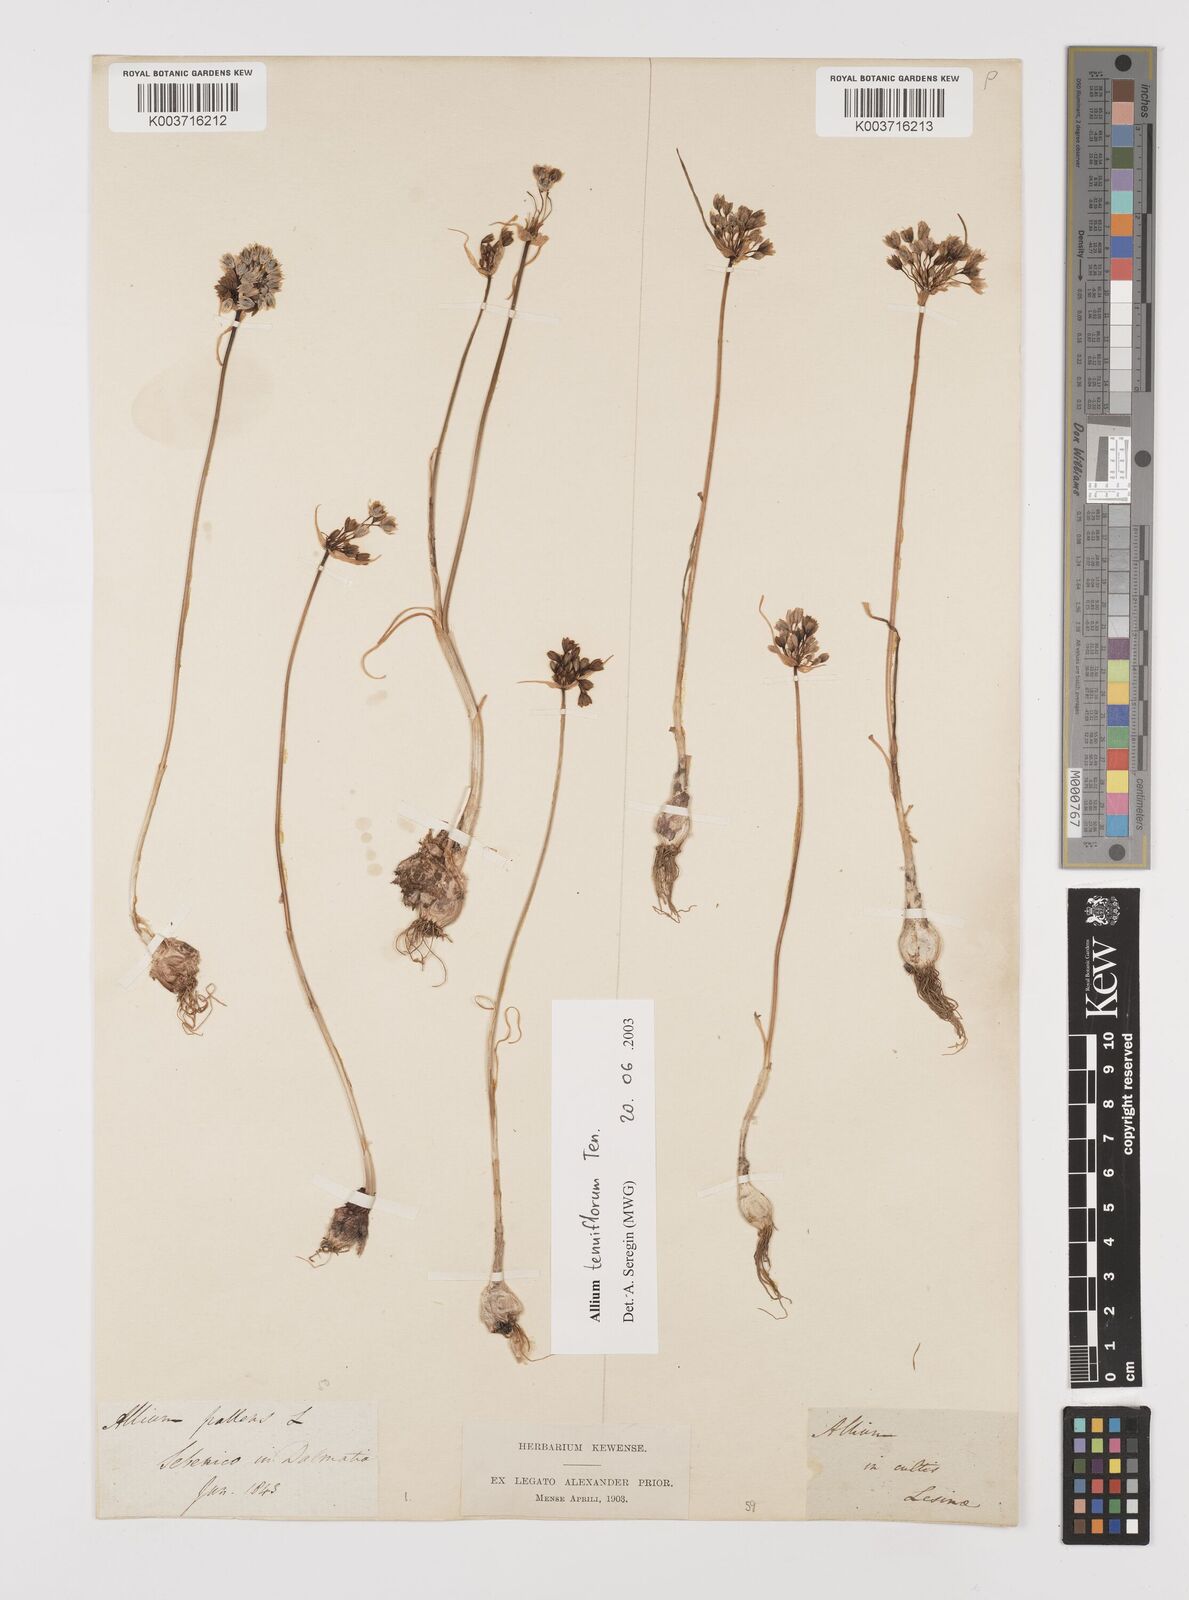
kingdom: Plantae
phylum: Tracheophyta
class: Liliopsida
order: Asparagales
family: Amaryllidaceae
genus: Allium
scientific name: Allium tenuiflorum
